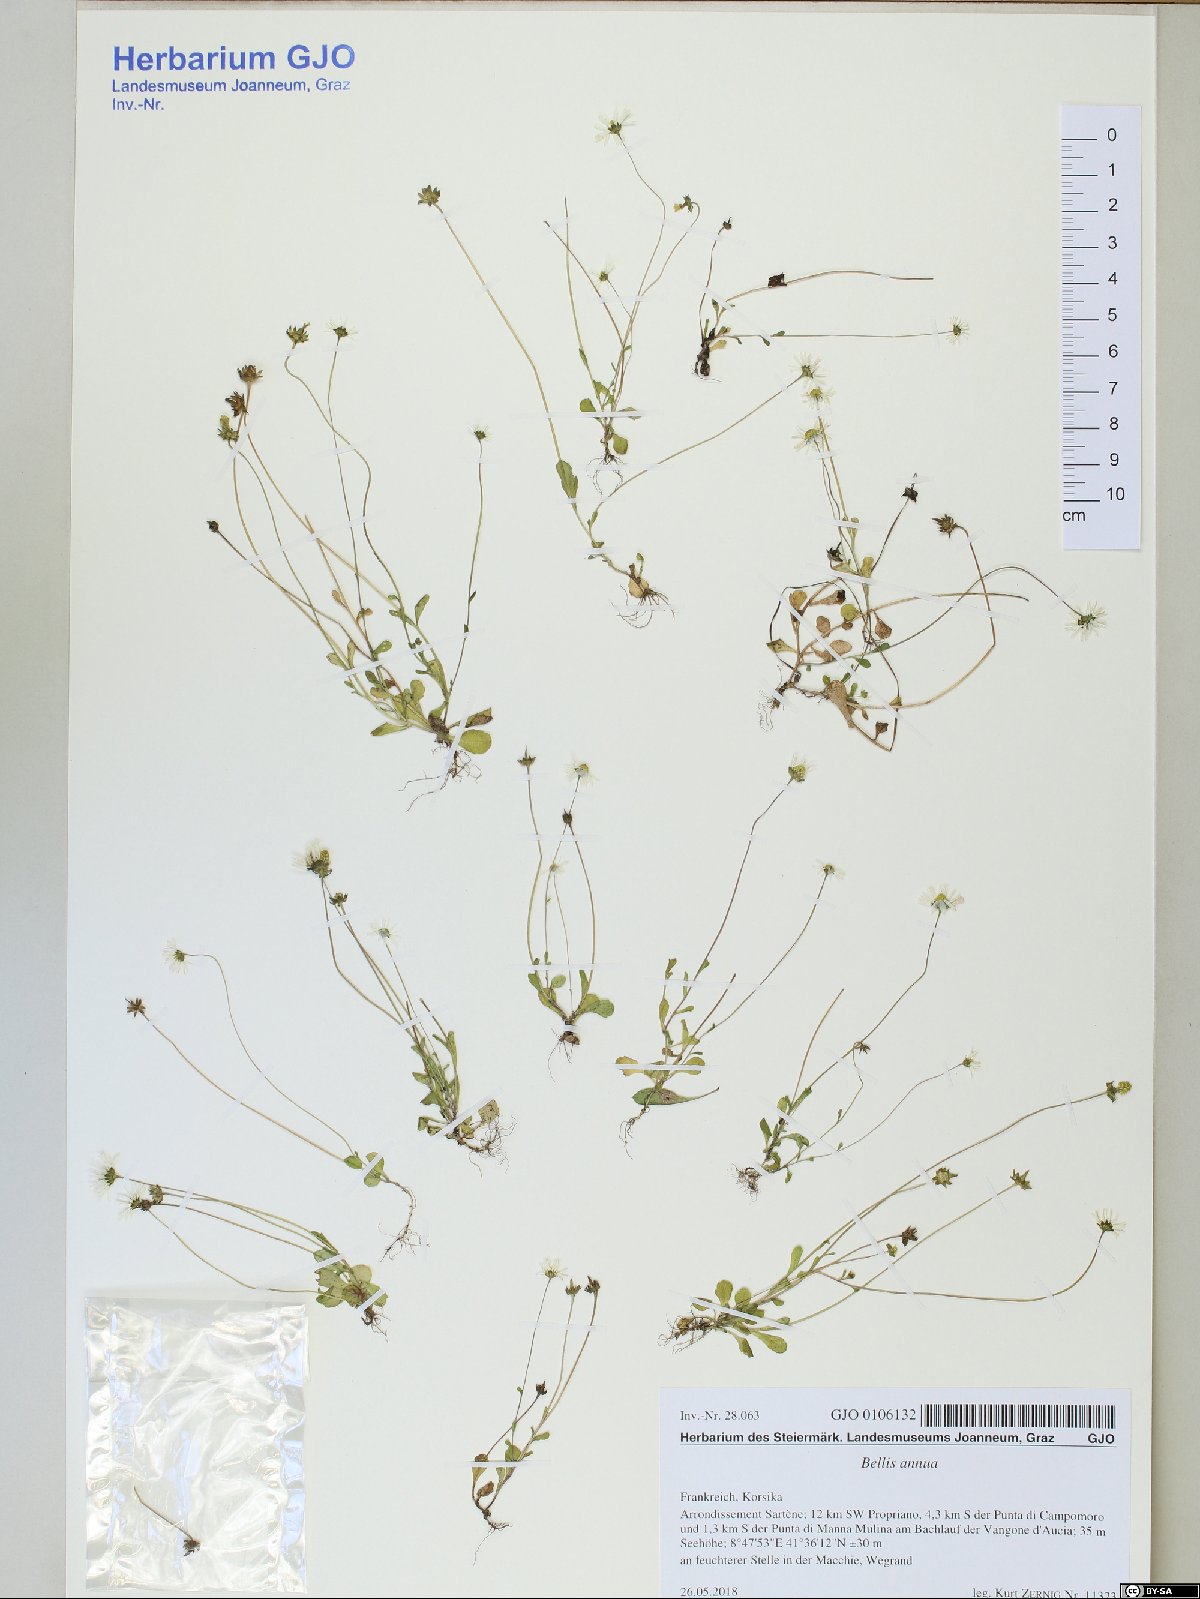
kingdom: Plantae
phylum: Tracheophyta
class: Magnoliopsida
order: Asterales
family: Asteraceae
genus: Bellis
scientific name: Bellis annua
